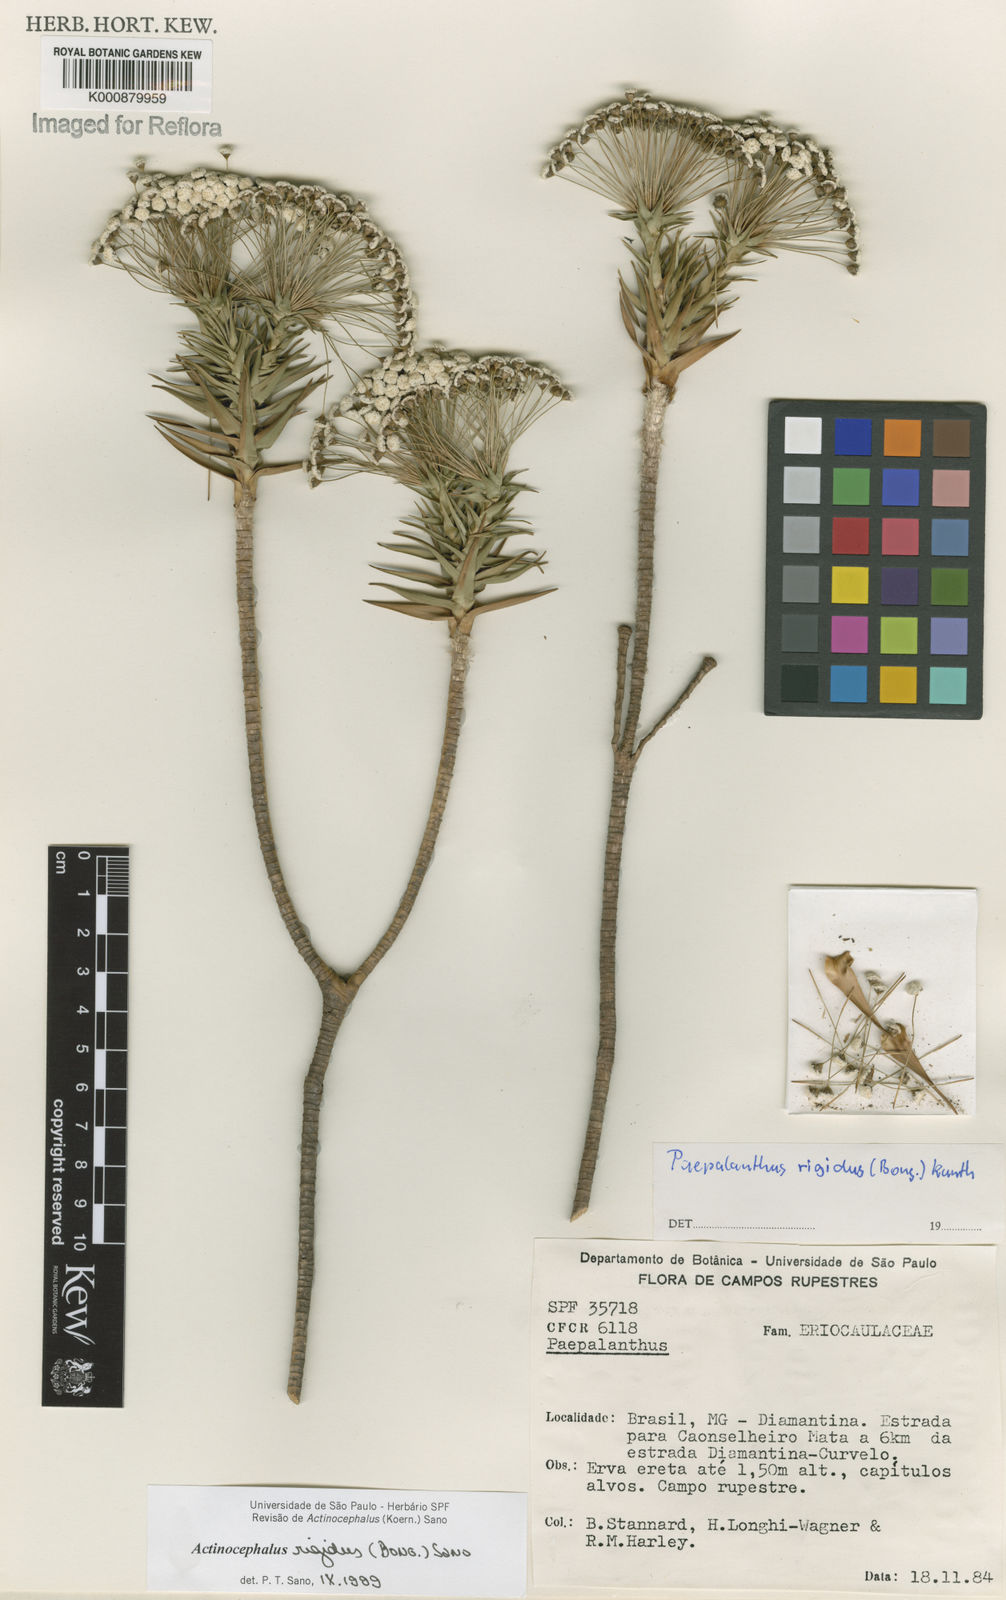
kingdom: Plantae
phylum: Tracheophyta
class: Liliopsida
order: Poales
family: Eriocaulaceae
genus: Paepalanthus
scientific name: Paepalanthus rigidus
